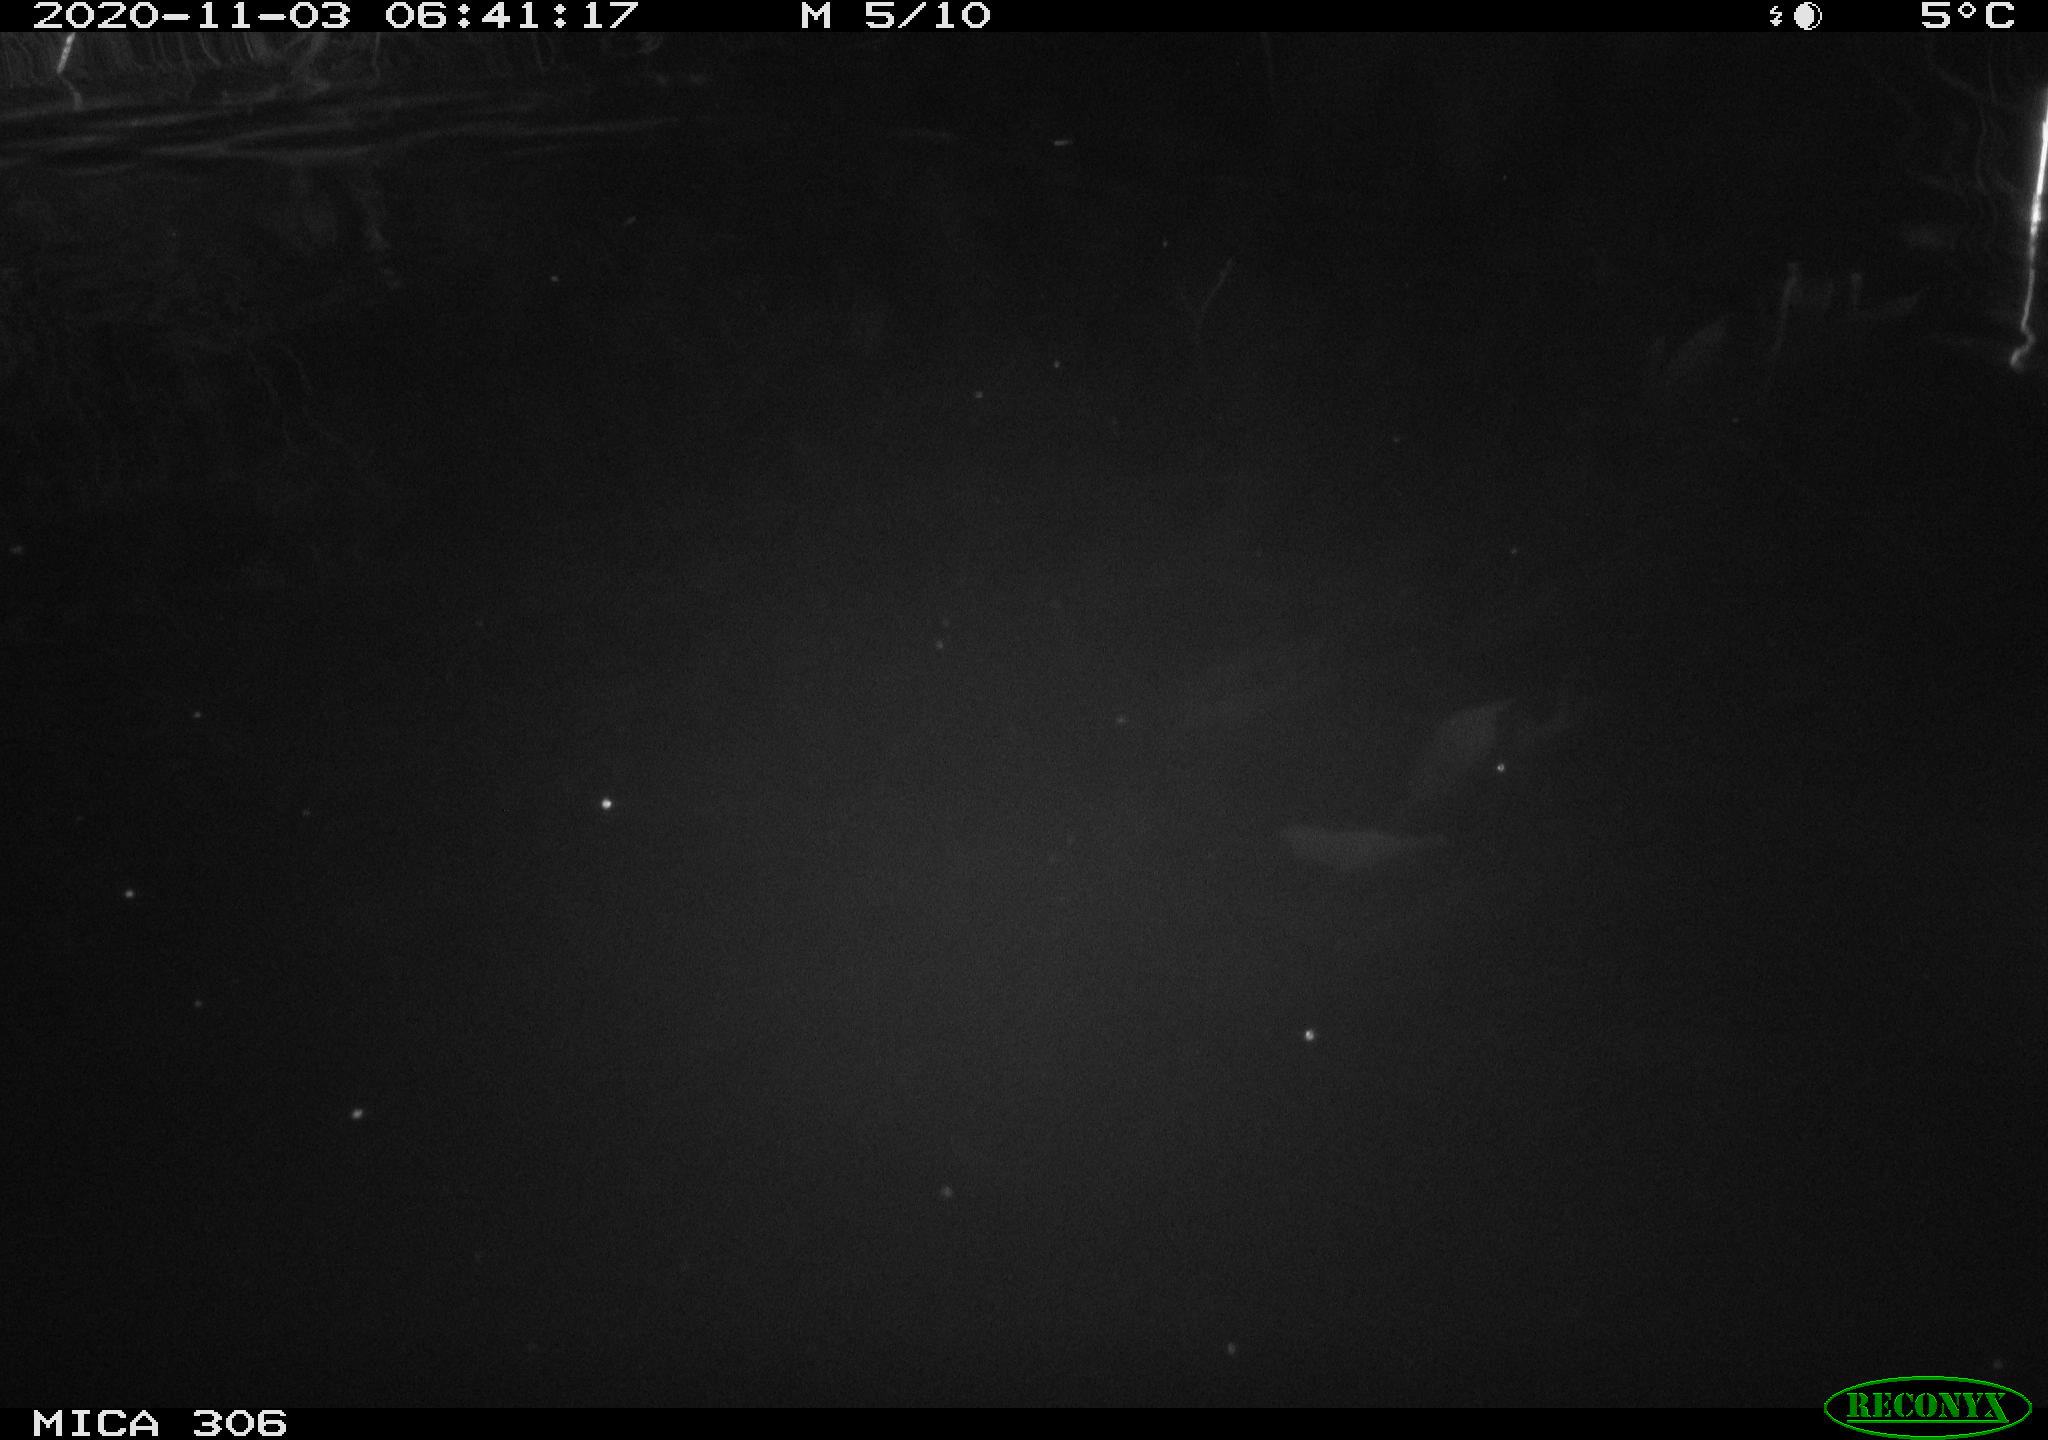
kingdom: Animalia
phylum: Chordata
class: Mammalia
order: Rodentia
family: Muridae
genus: Rattus
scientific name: Rattus norvegicus
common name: Brown rat
